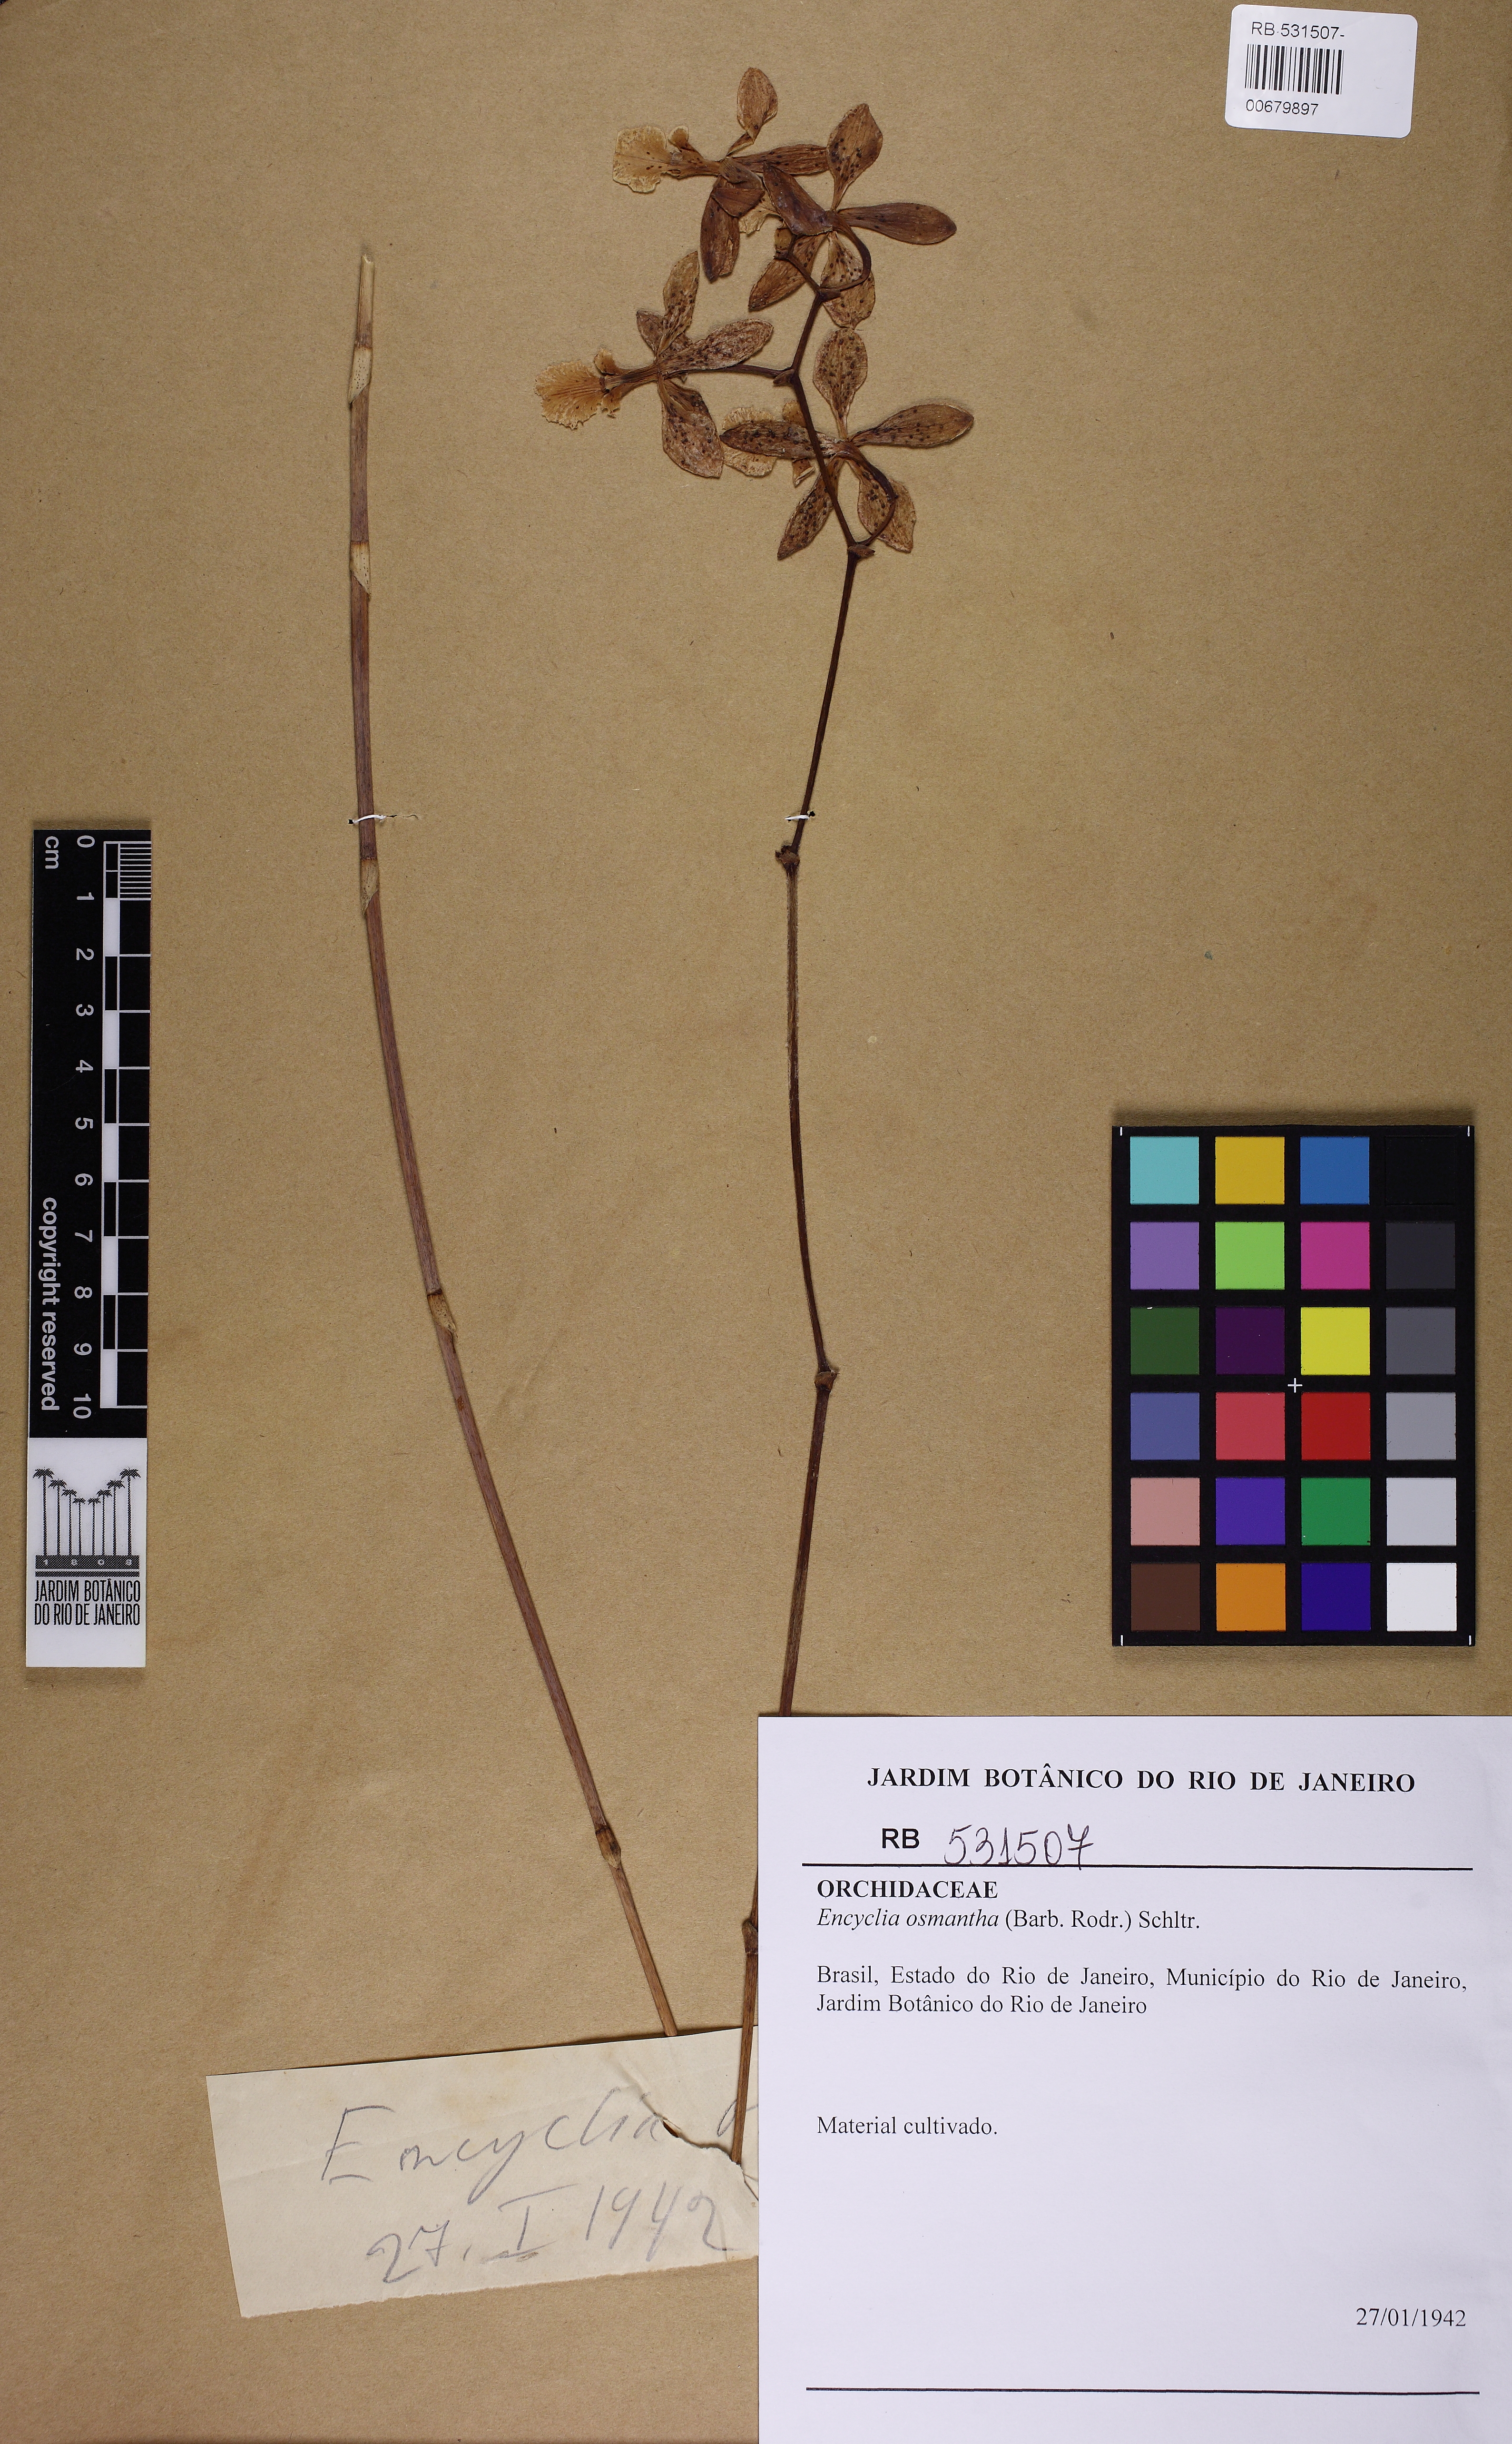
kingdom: Plantae
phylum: Tracheophyta
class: Liliopsida
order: Asparagales
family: Orchidaceae
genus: Encyclia
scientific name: Encyclia osmantha
